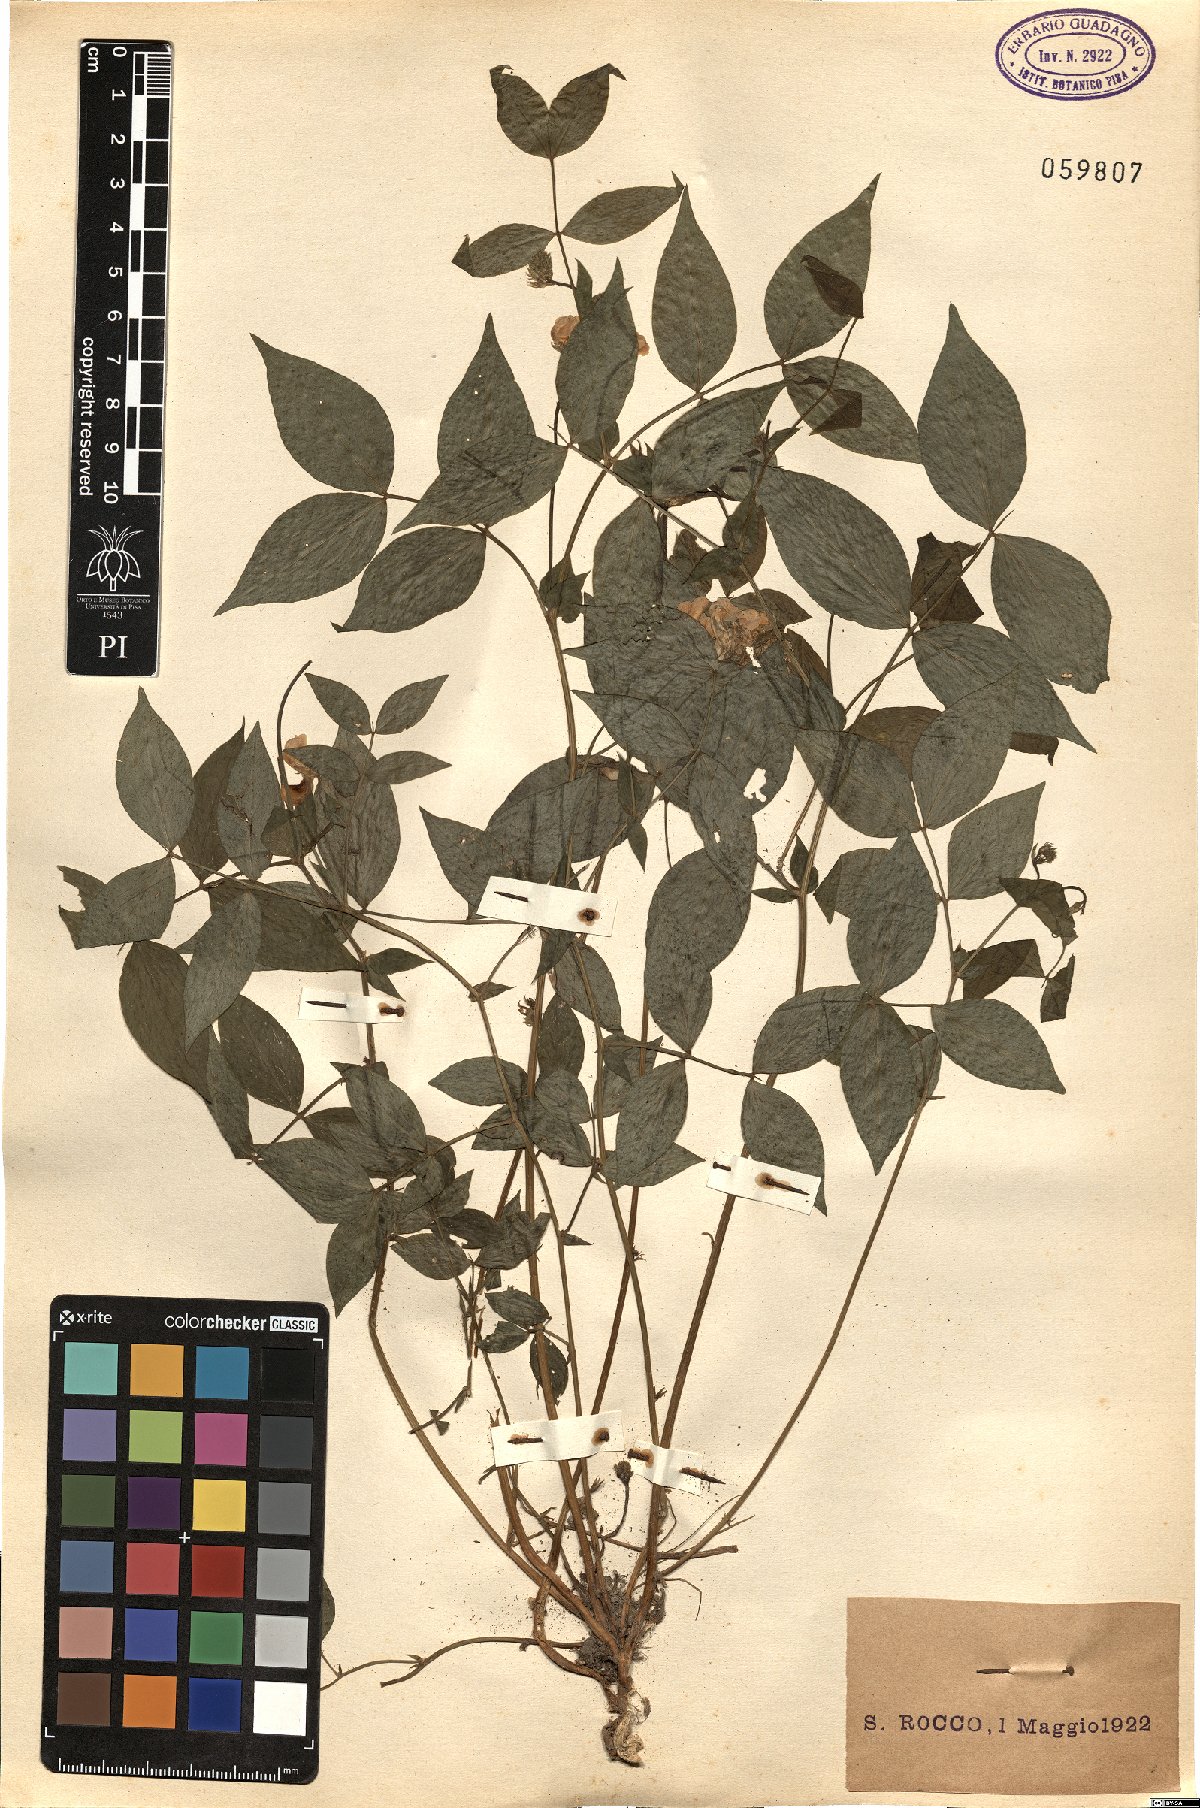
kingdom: Plantae
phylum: Tracheophyta
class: Magnoliopsida
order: Fabales
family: Fabaceae
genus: Lathyrus
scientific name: Lathyrus venetus
